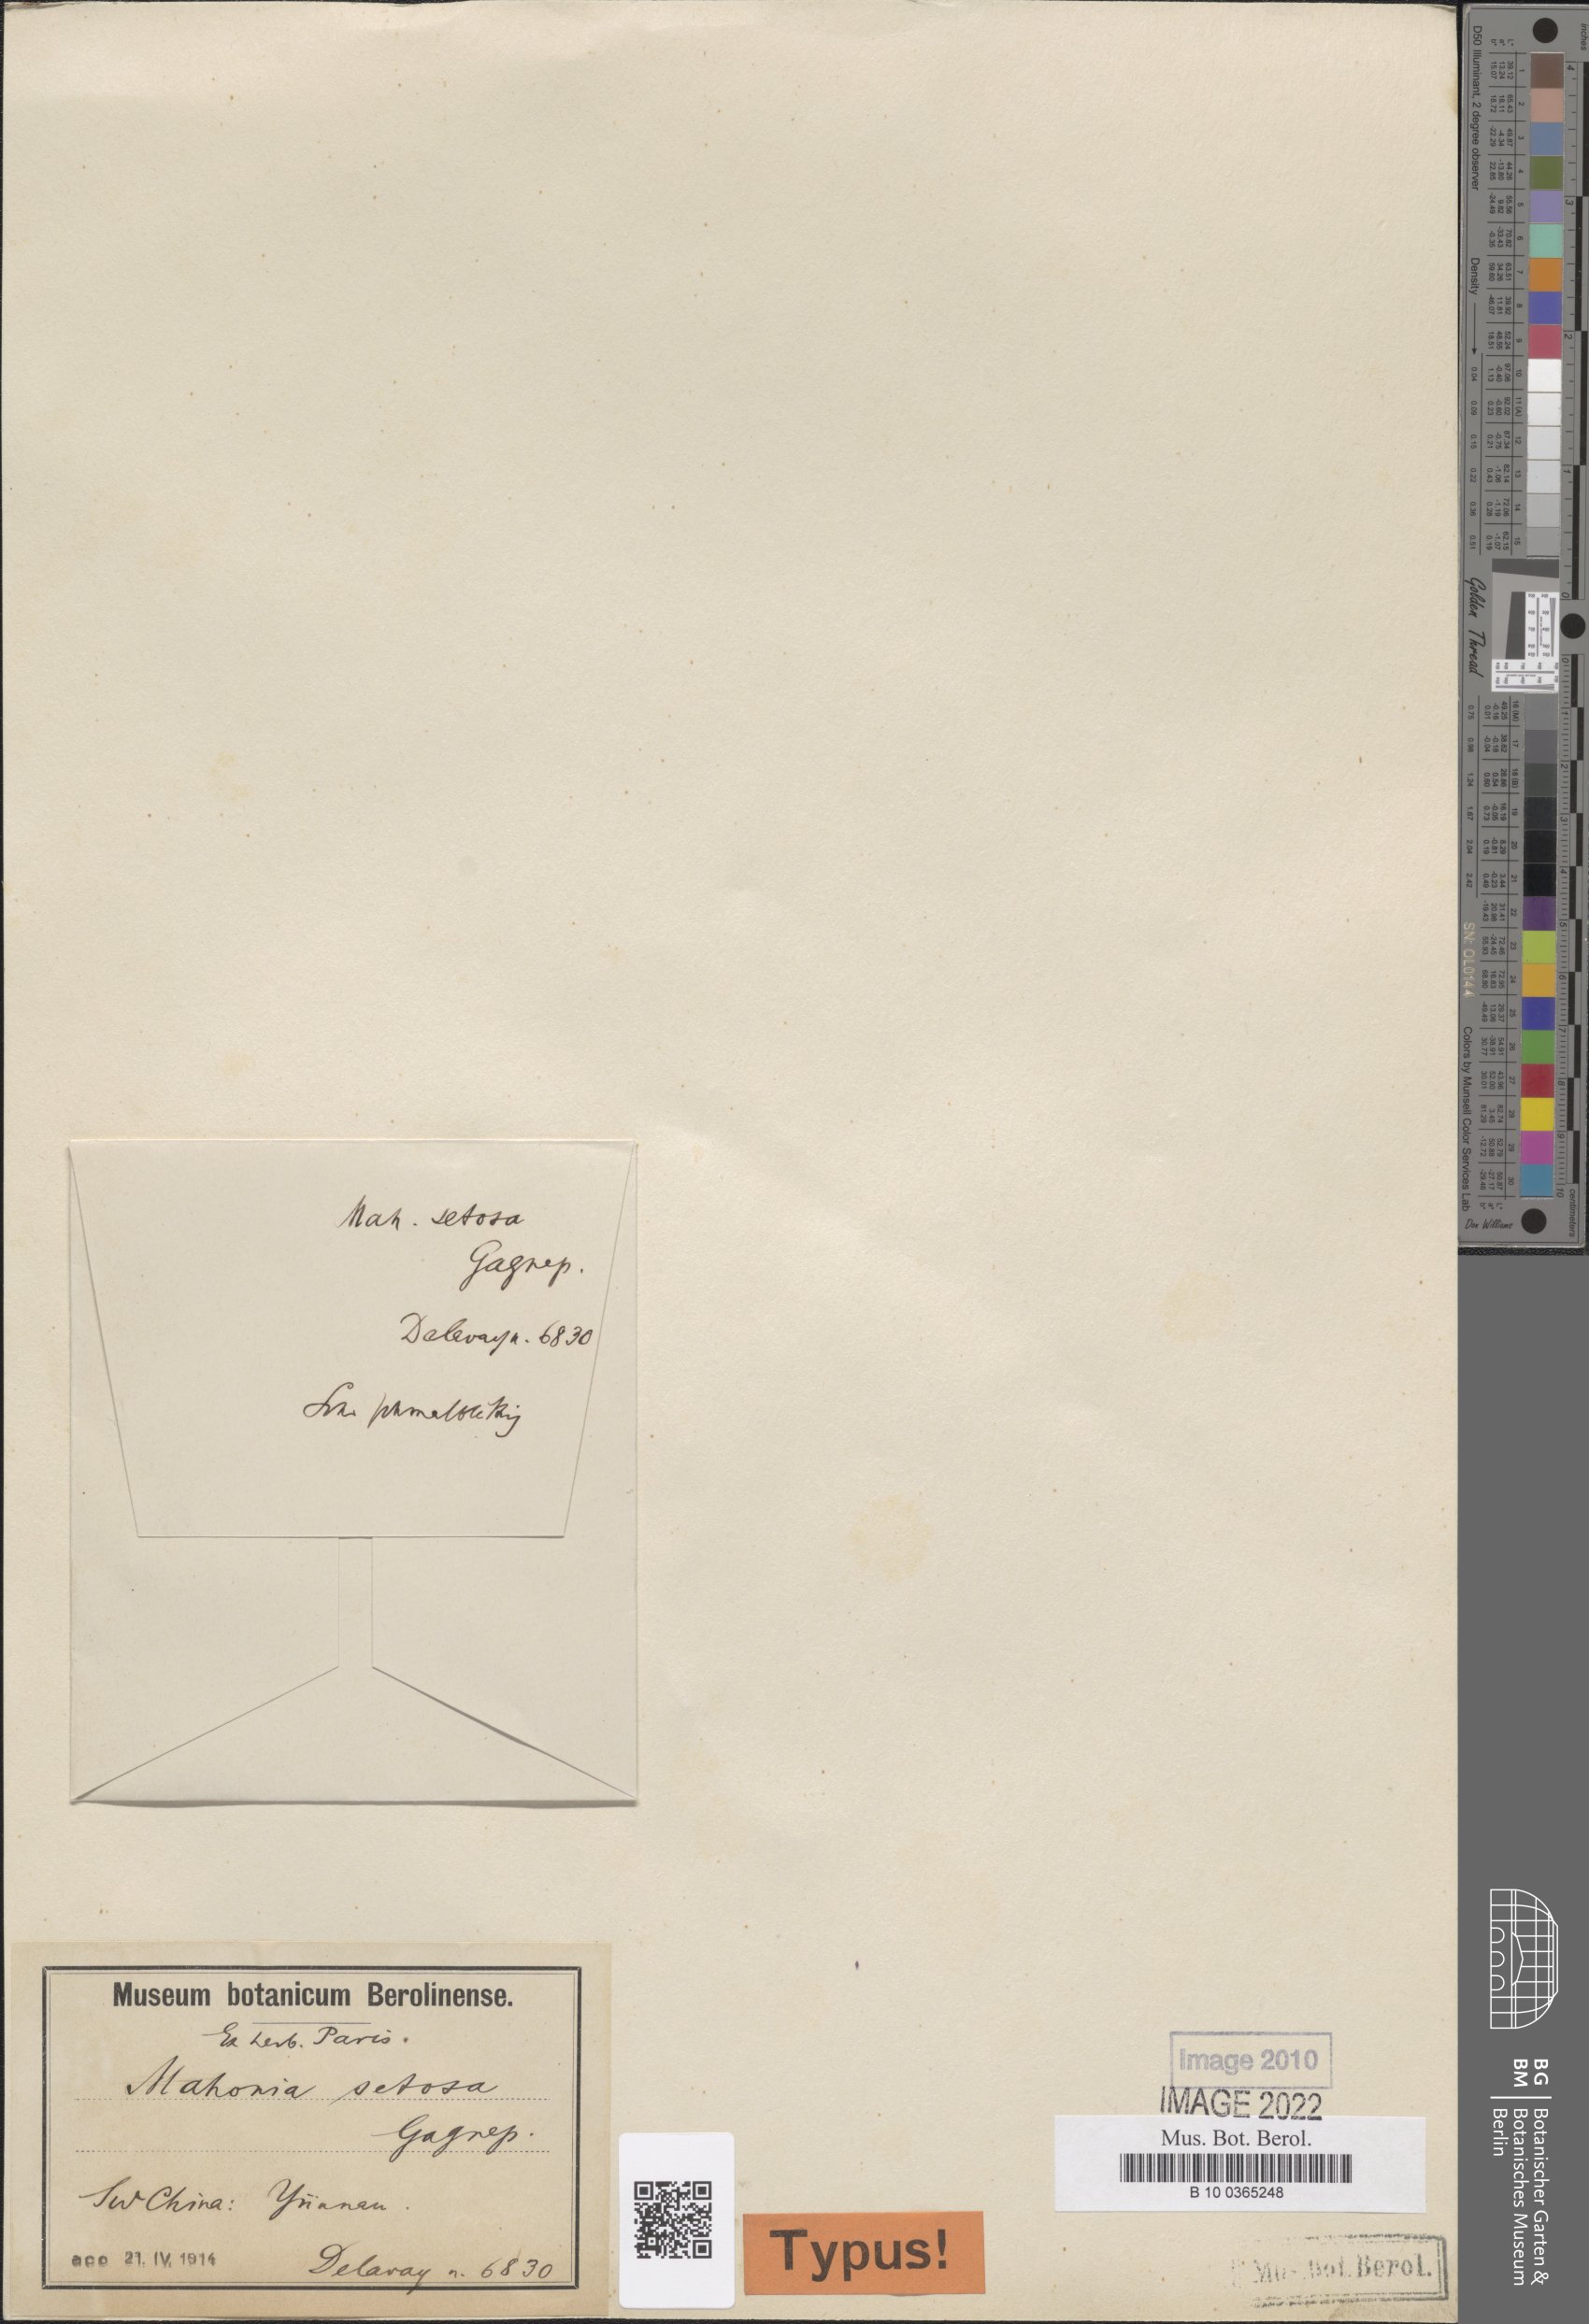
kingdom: Plantae
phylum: Tracheophyta
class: Magnoliopsida
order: Ranunculales
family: Berberidaceae
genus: Mahonia
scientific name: Mahonia setosa
